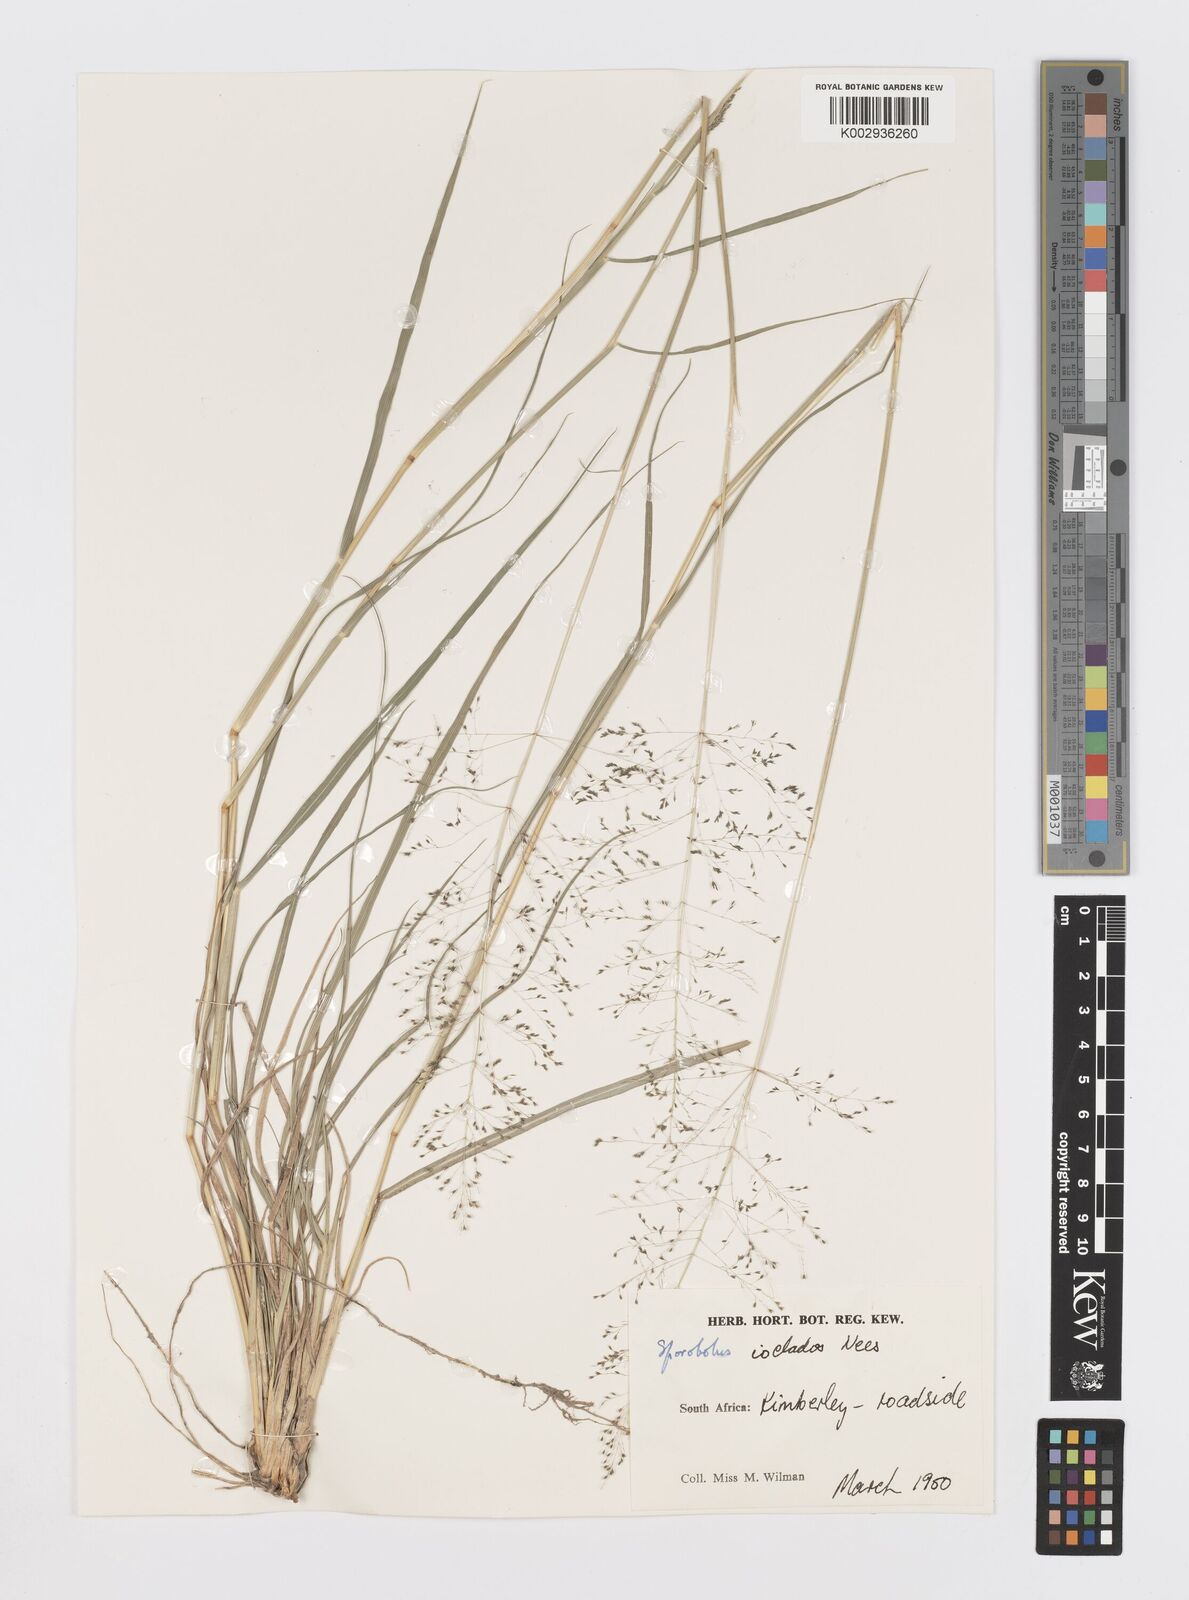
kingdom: Plantae
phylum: Tracheophyta
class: Liliopsida
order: Poales
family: Poaceae
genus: Sporobolus
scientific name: Sporobolus ioclados
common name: Pan dropseed
